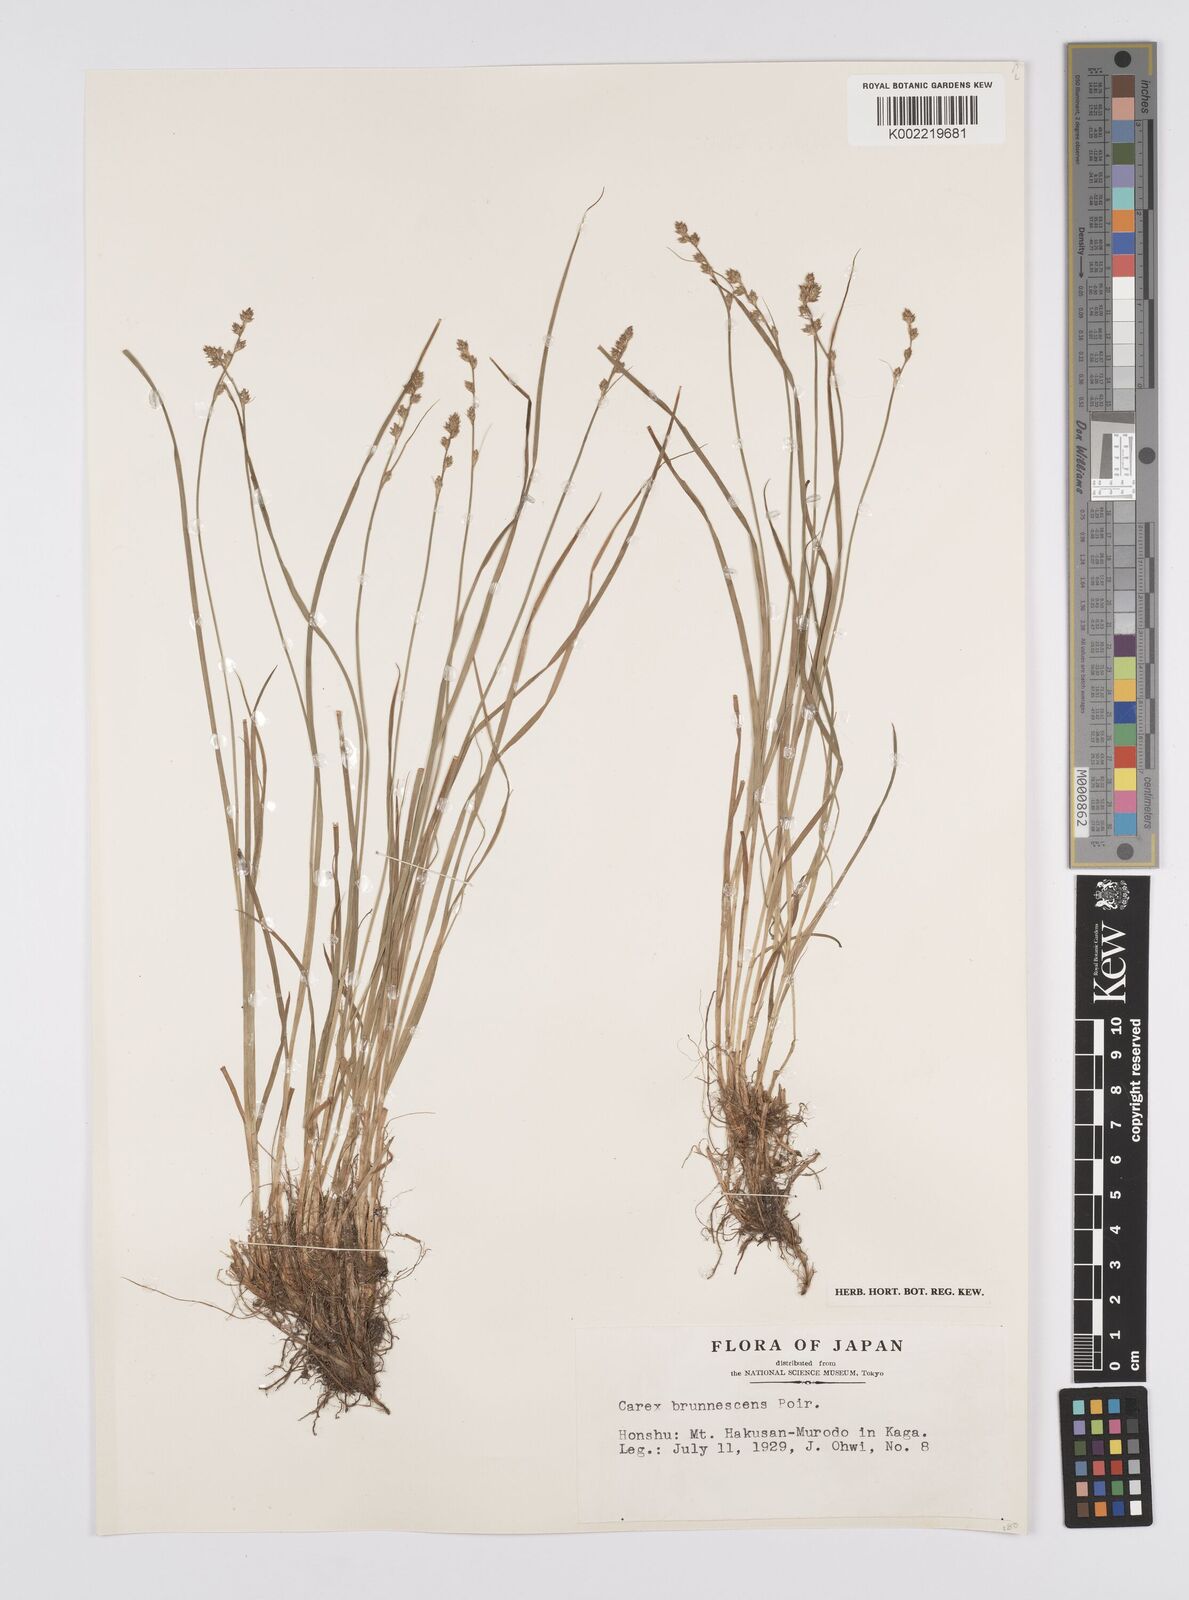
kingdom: Plantae
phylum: Tracheophyta
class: Liliopsida
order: Poales
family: Cyperaceae
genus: Carex
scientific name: Carex brunnescens
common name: Brown sedge
